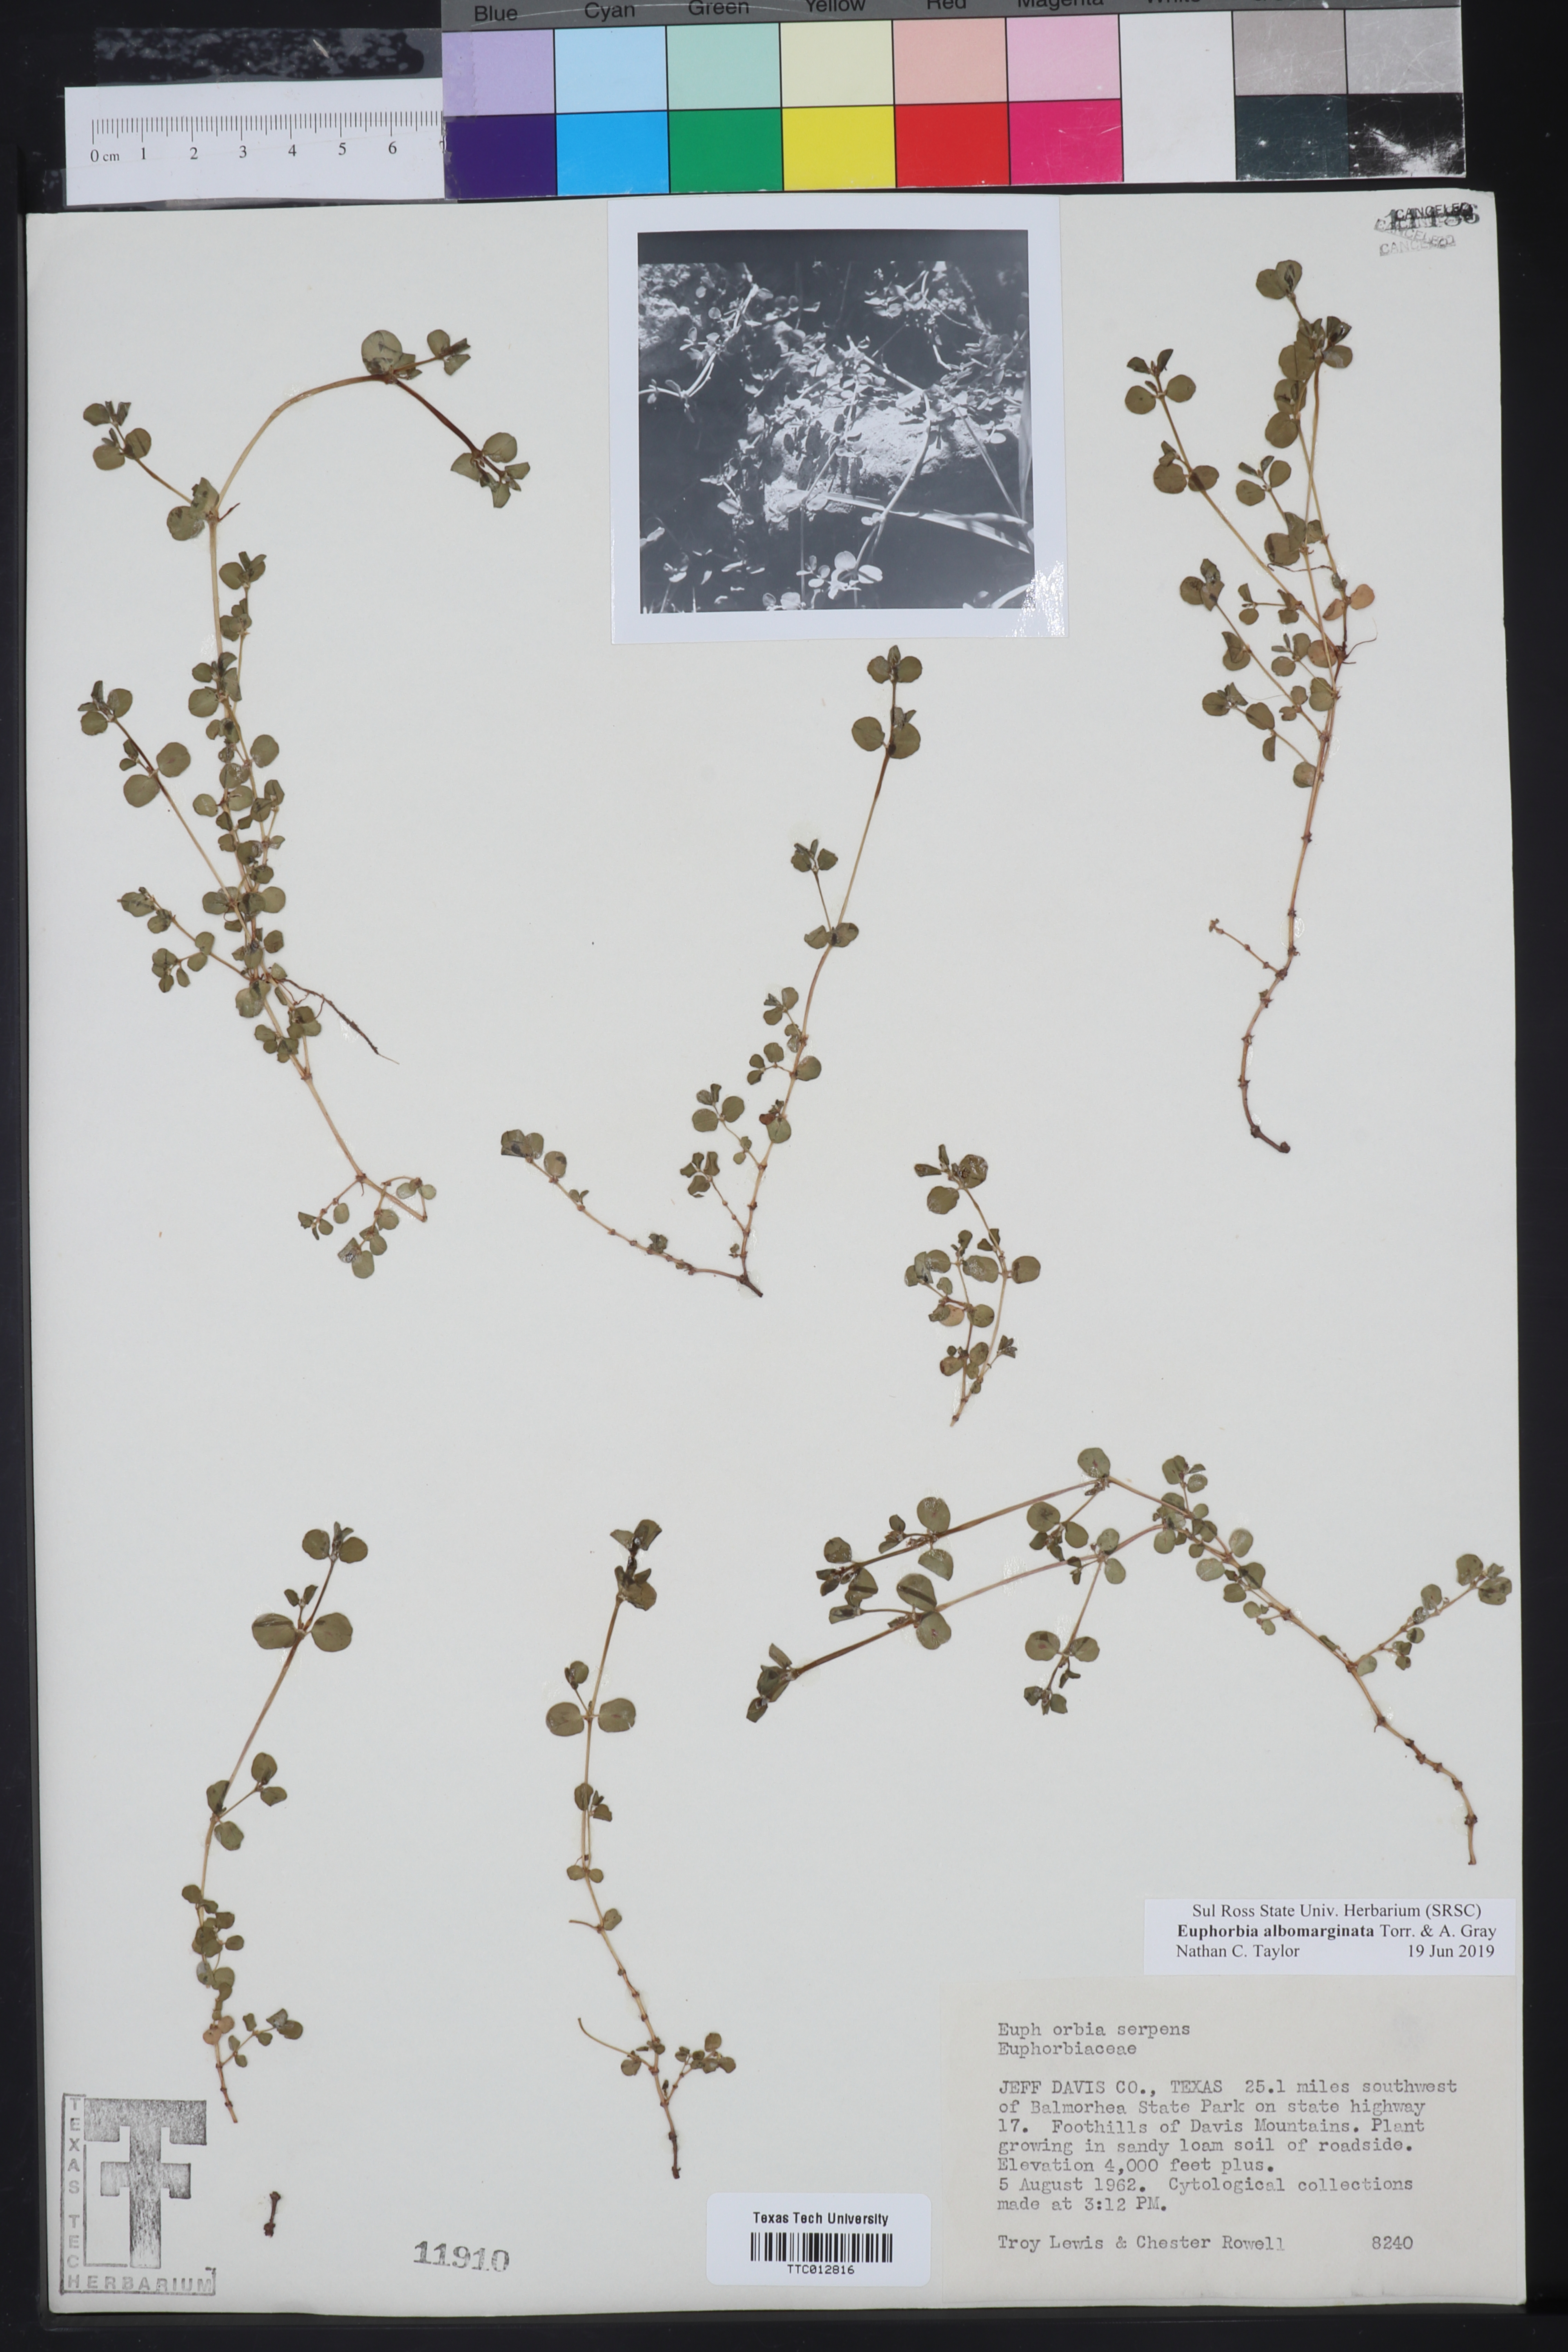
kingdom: Plantae
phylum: Tracheophyta
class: Magnoliopsida
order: Malpighiales
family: Euphorbiaceae
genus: Euphorbia
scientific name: Euphorbia albomarginata
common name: Whitemargin sandmat
